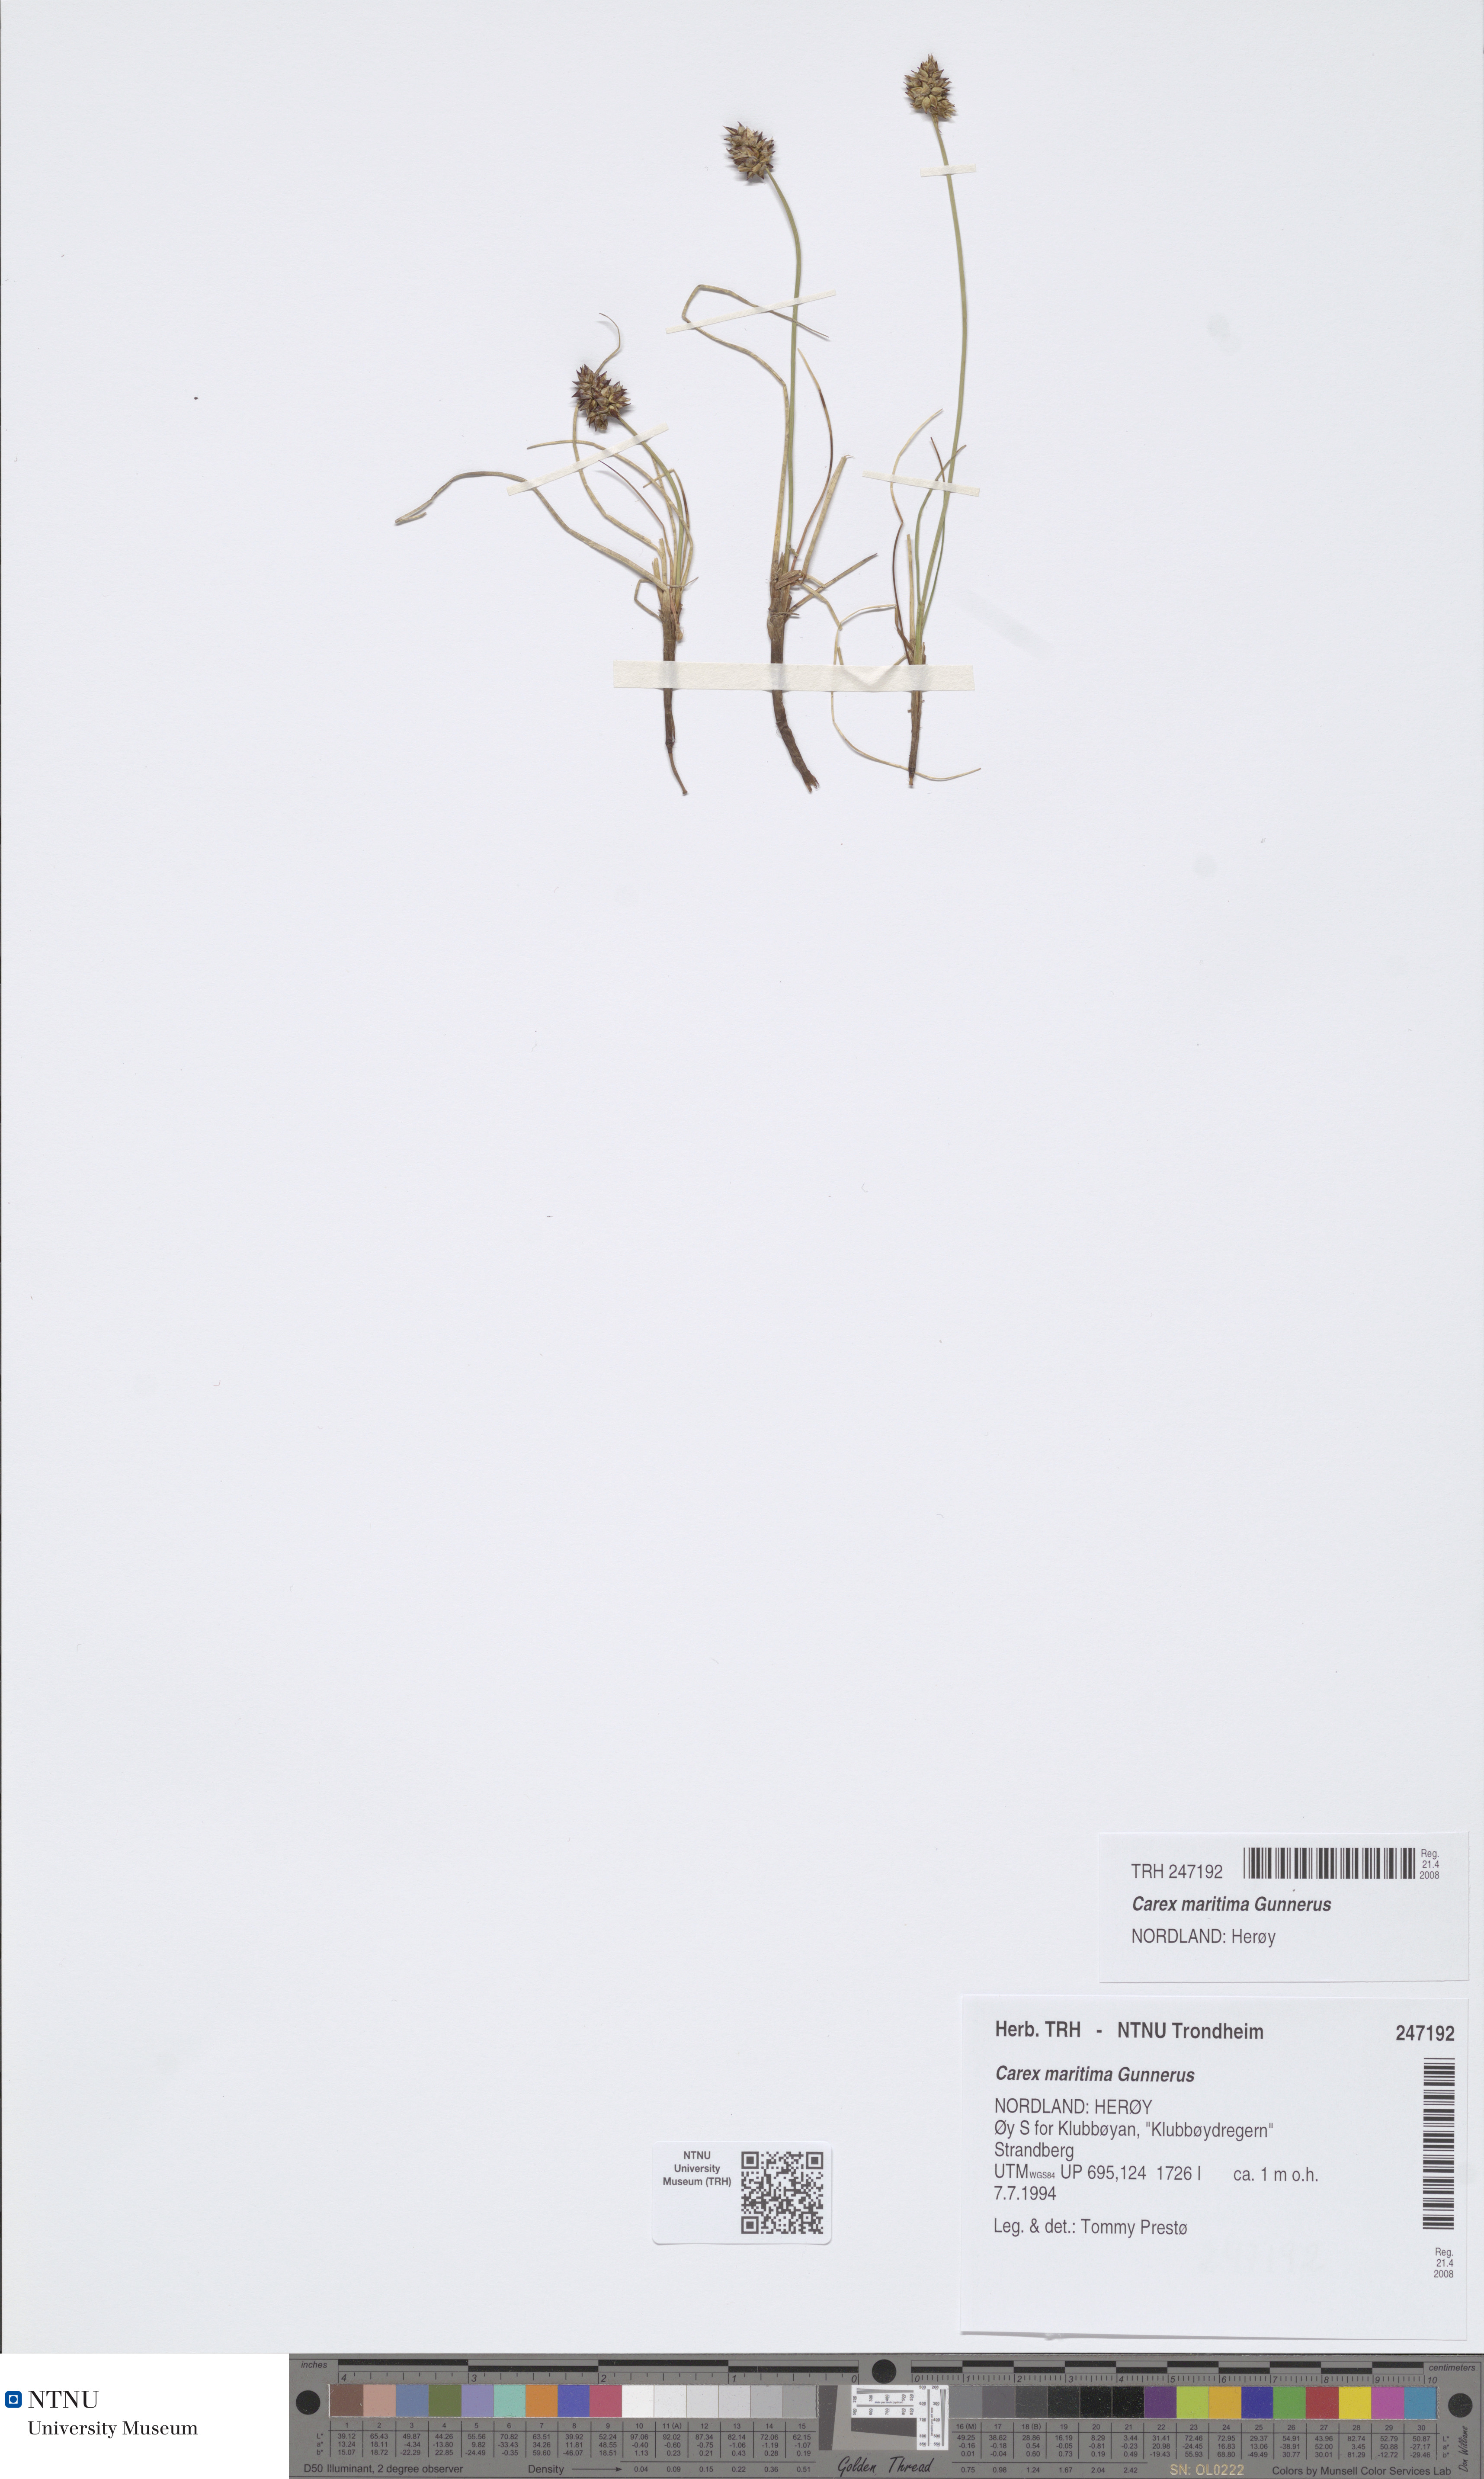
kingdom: Plantae
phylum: Tracheophyta
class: Liliopsida
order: Poales
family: Cyperaceae
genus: Carex
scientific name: Carex maritima
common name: Curved sedge
